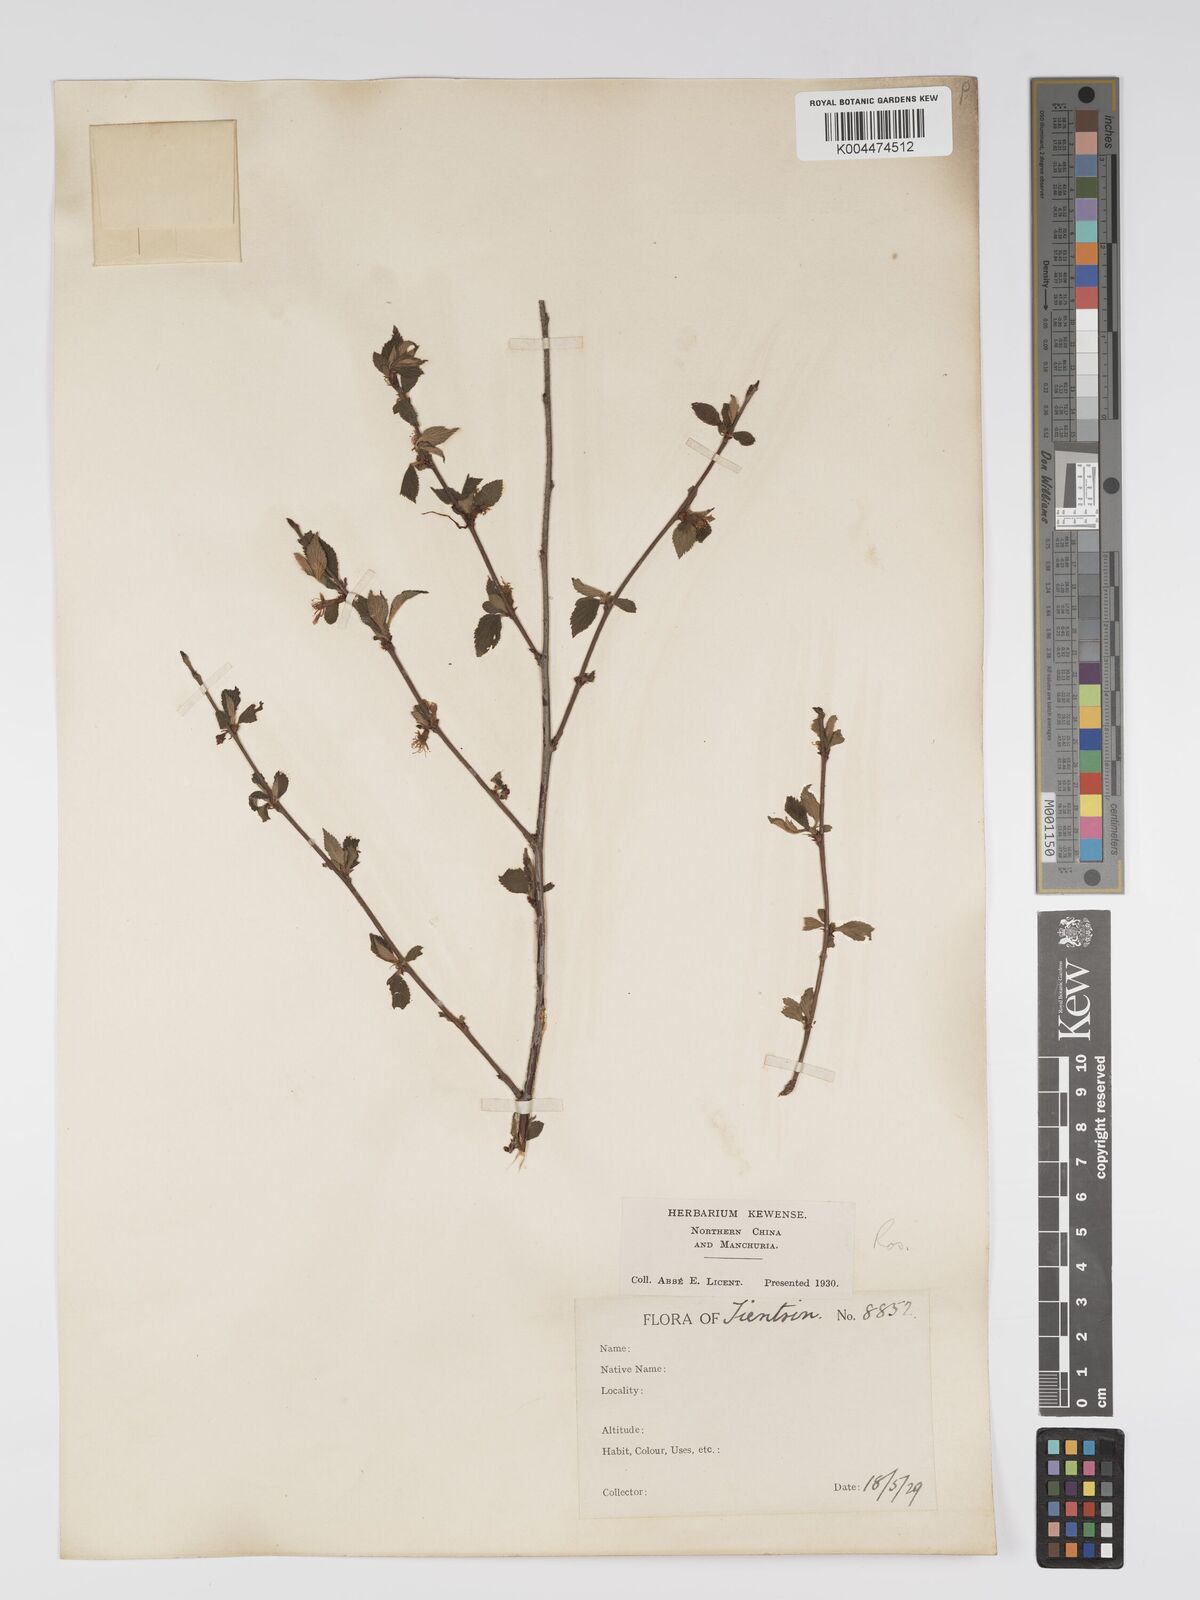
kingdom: Plantae
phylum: Tracheophyta
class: Magnoliopsida
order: Rosales
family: Rosaceae
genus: Prunus
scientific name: Prunus
